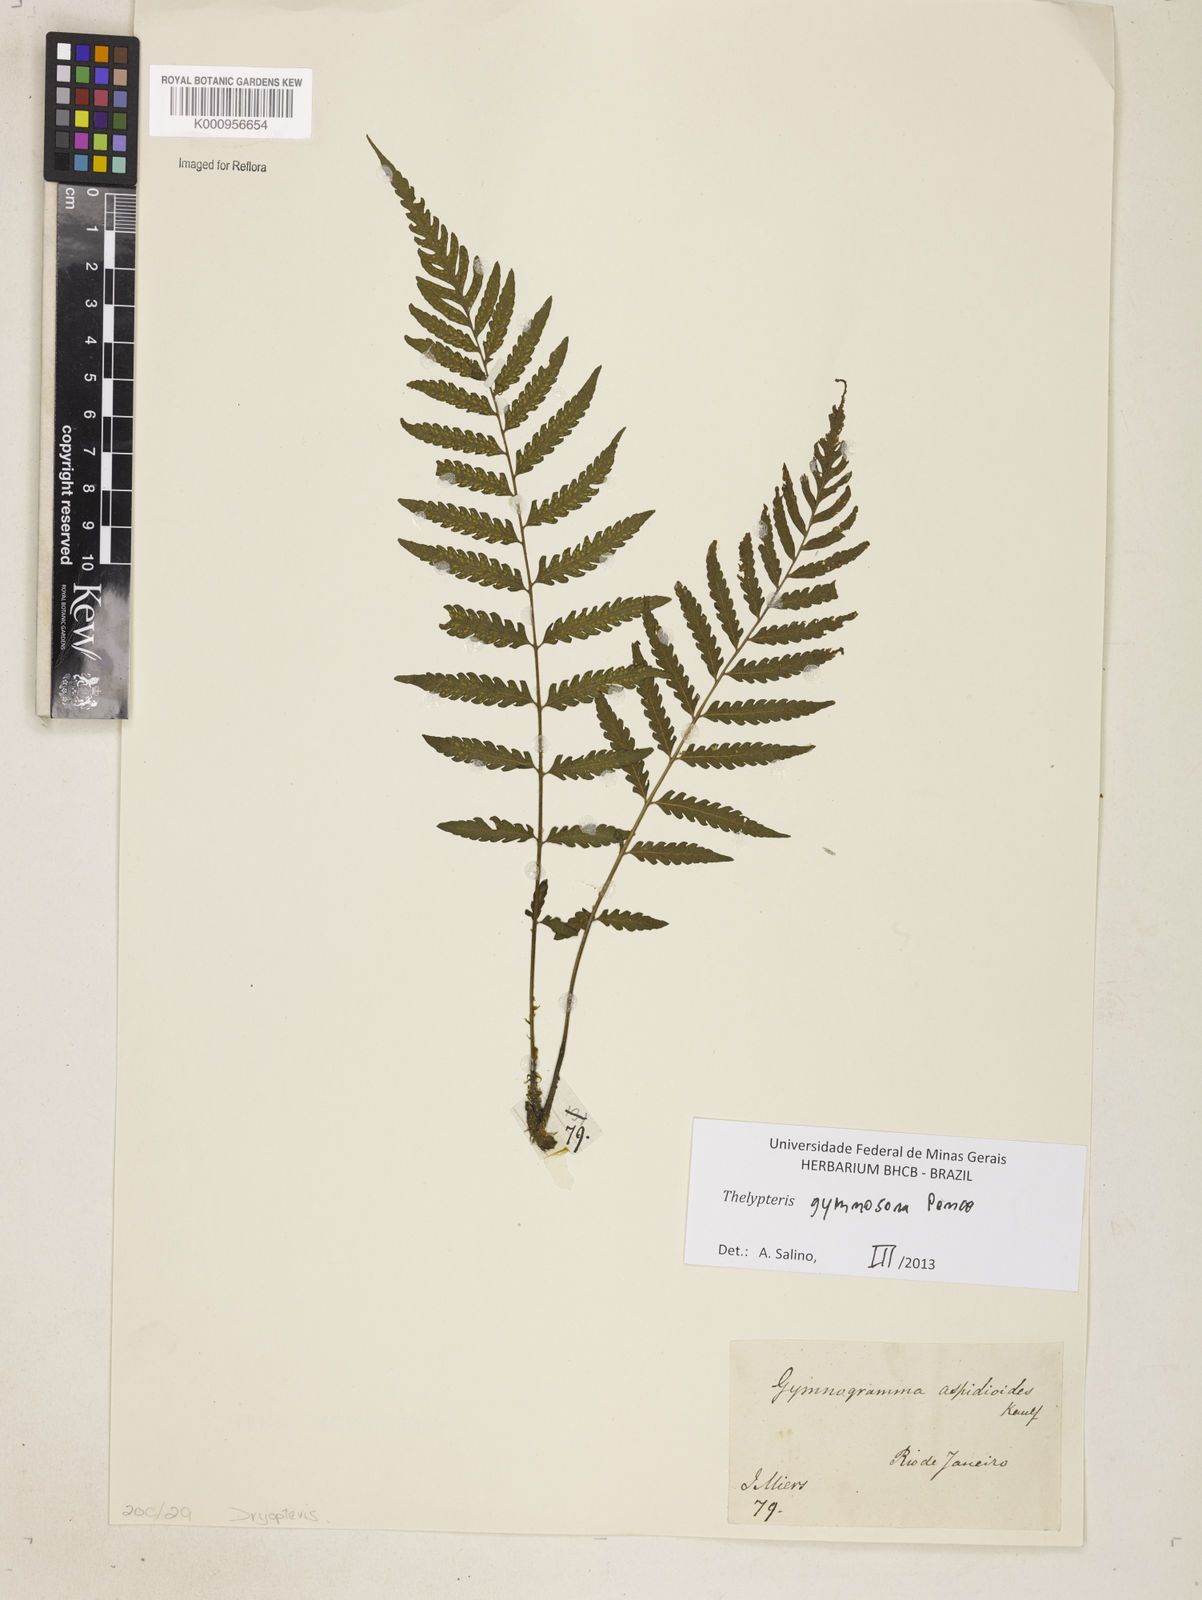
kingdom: Plantae
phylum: Tracheophyta
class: Polypodiopsida
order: Polypodiales
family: Thelypteridaceae
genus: Amauropelta
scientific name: Amauropelta
